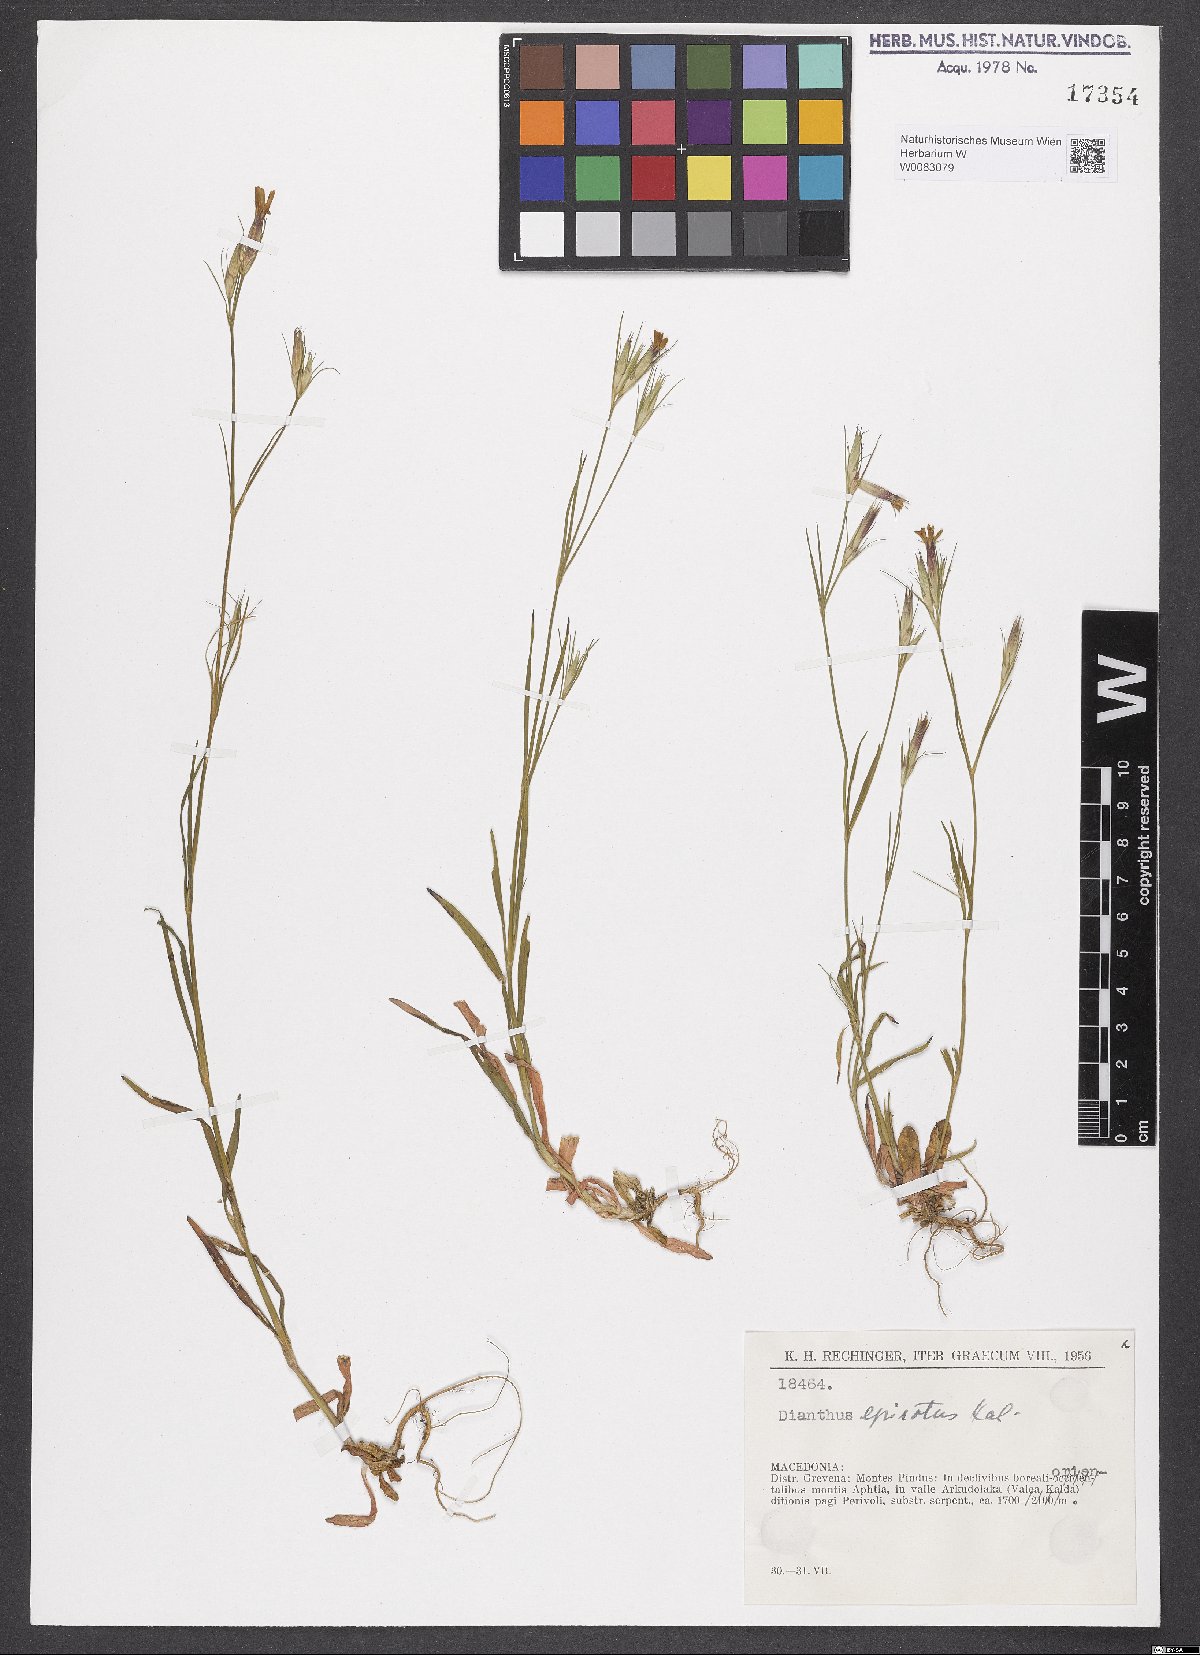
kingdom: Plantae
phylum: Tracheophyta
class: Magnoliopsida
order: Caryophyllales
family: Caryophyllaceae
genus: Dianthus
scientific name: Dianthus armeria
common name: Deptford pink
